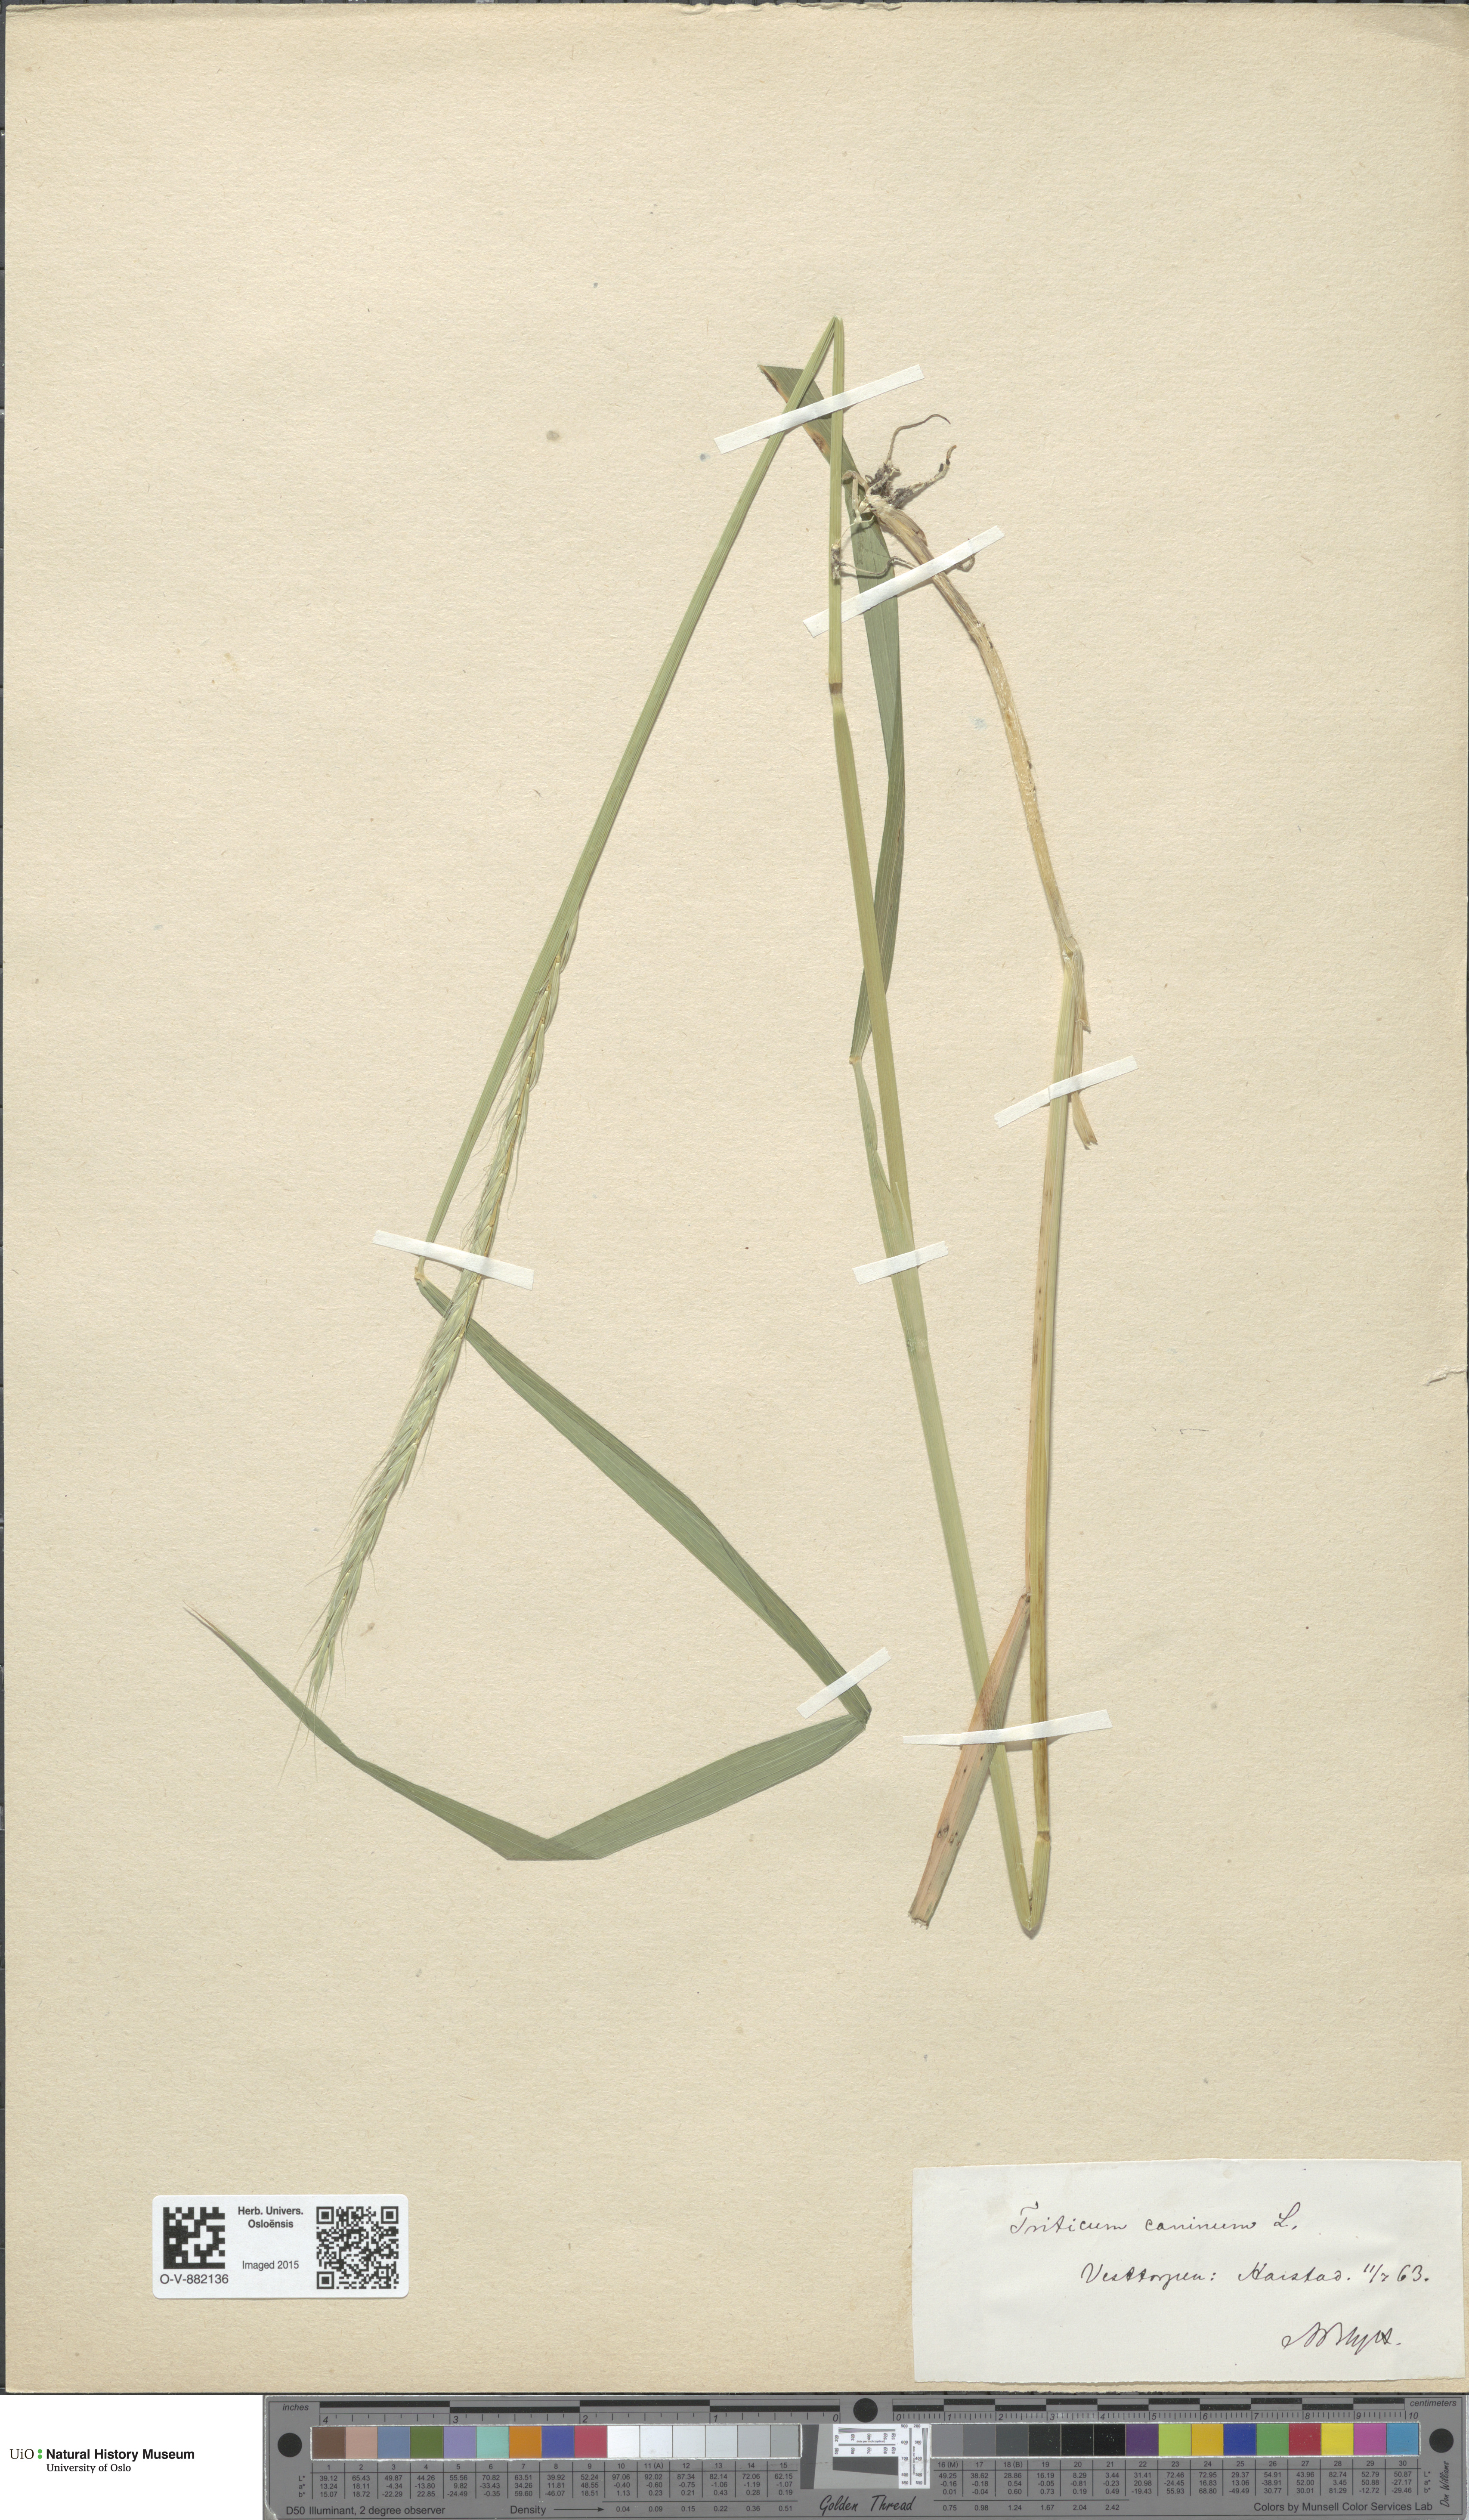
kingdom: Plantae
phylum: Tracheophyta
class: Liliopsida
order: Poales
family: Poaceae
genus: Elymus
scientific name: Elymus caninus
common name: Bearded couch
